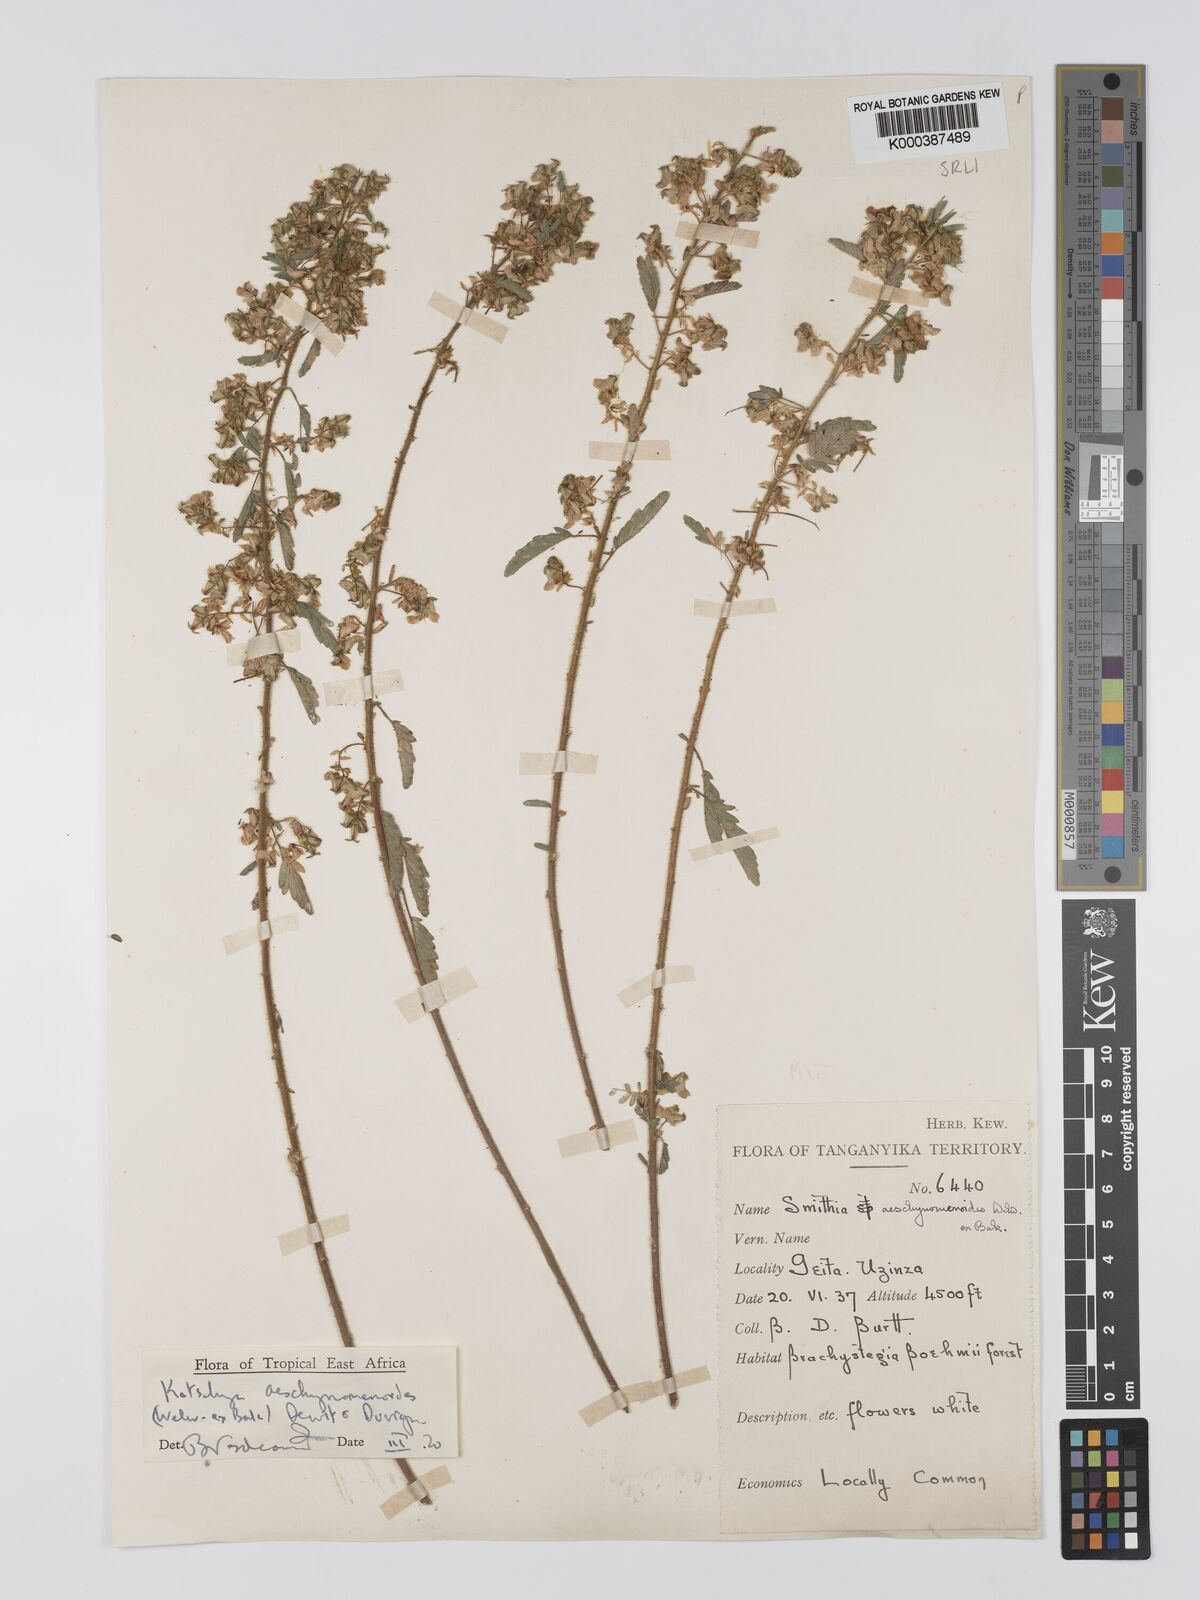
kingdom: Plantae
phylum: Tracheophyta
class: Magnoliopsida
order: Fabales
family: Fabaceae
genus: Kotschya
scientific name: Kotschya aeschynomenoides
